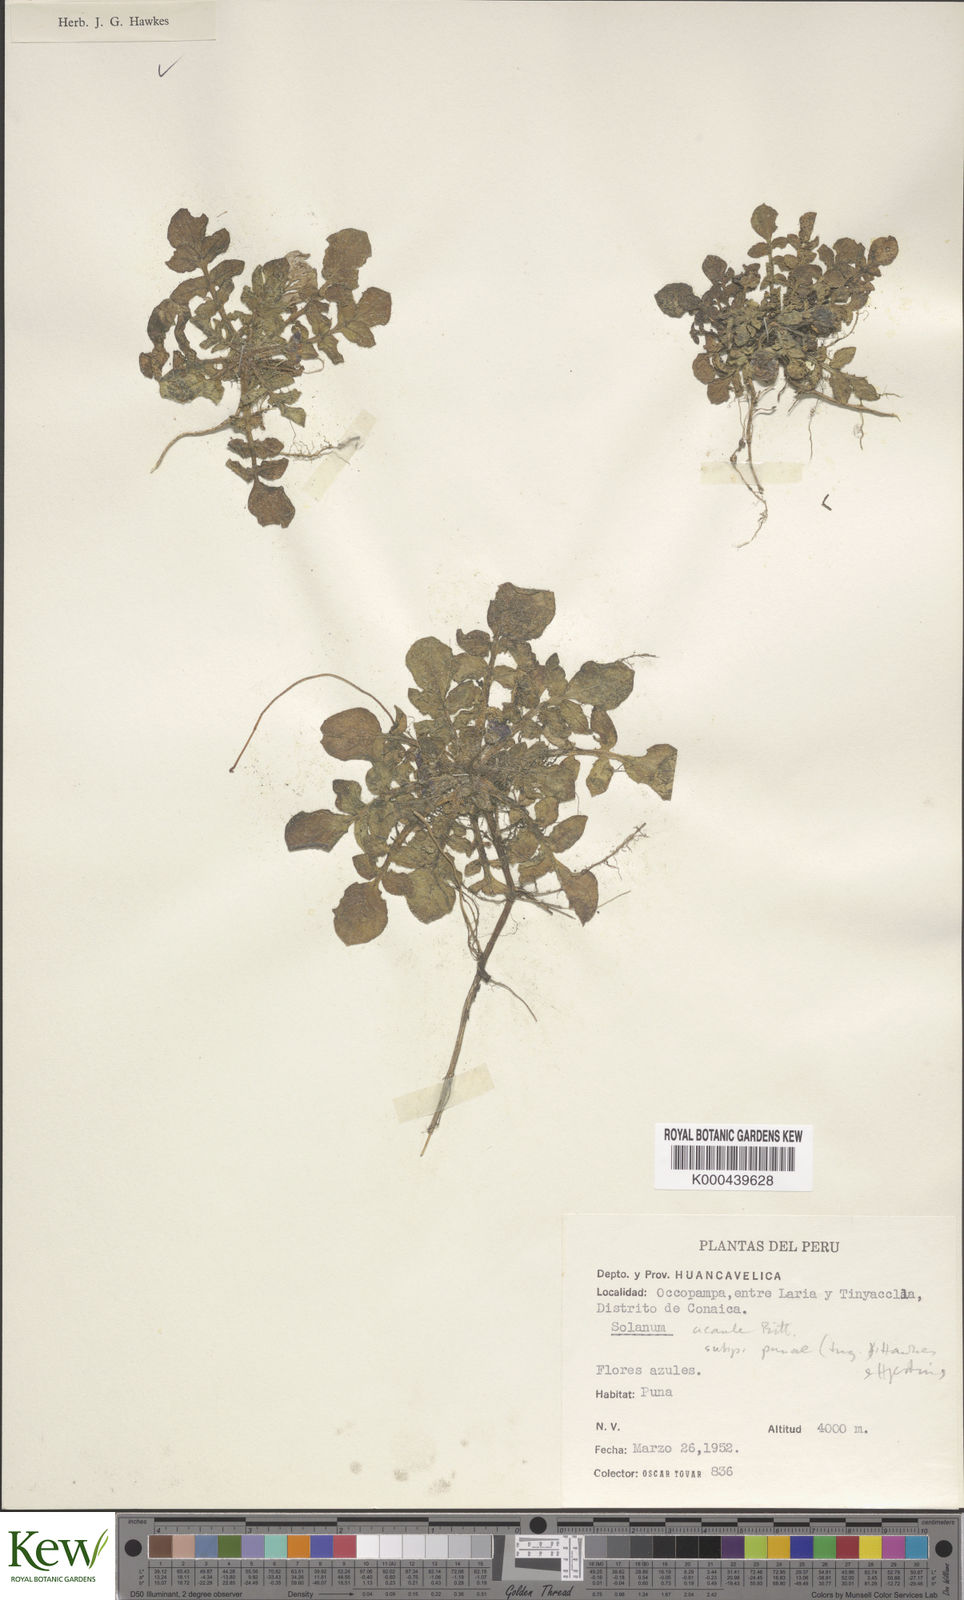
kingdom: Plantae
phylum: Tracheophyta
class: Magnoliopsida
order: Solanales
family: Solanaceae
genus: Solanum
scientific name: Solanum acaule
